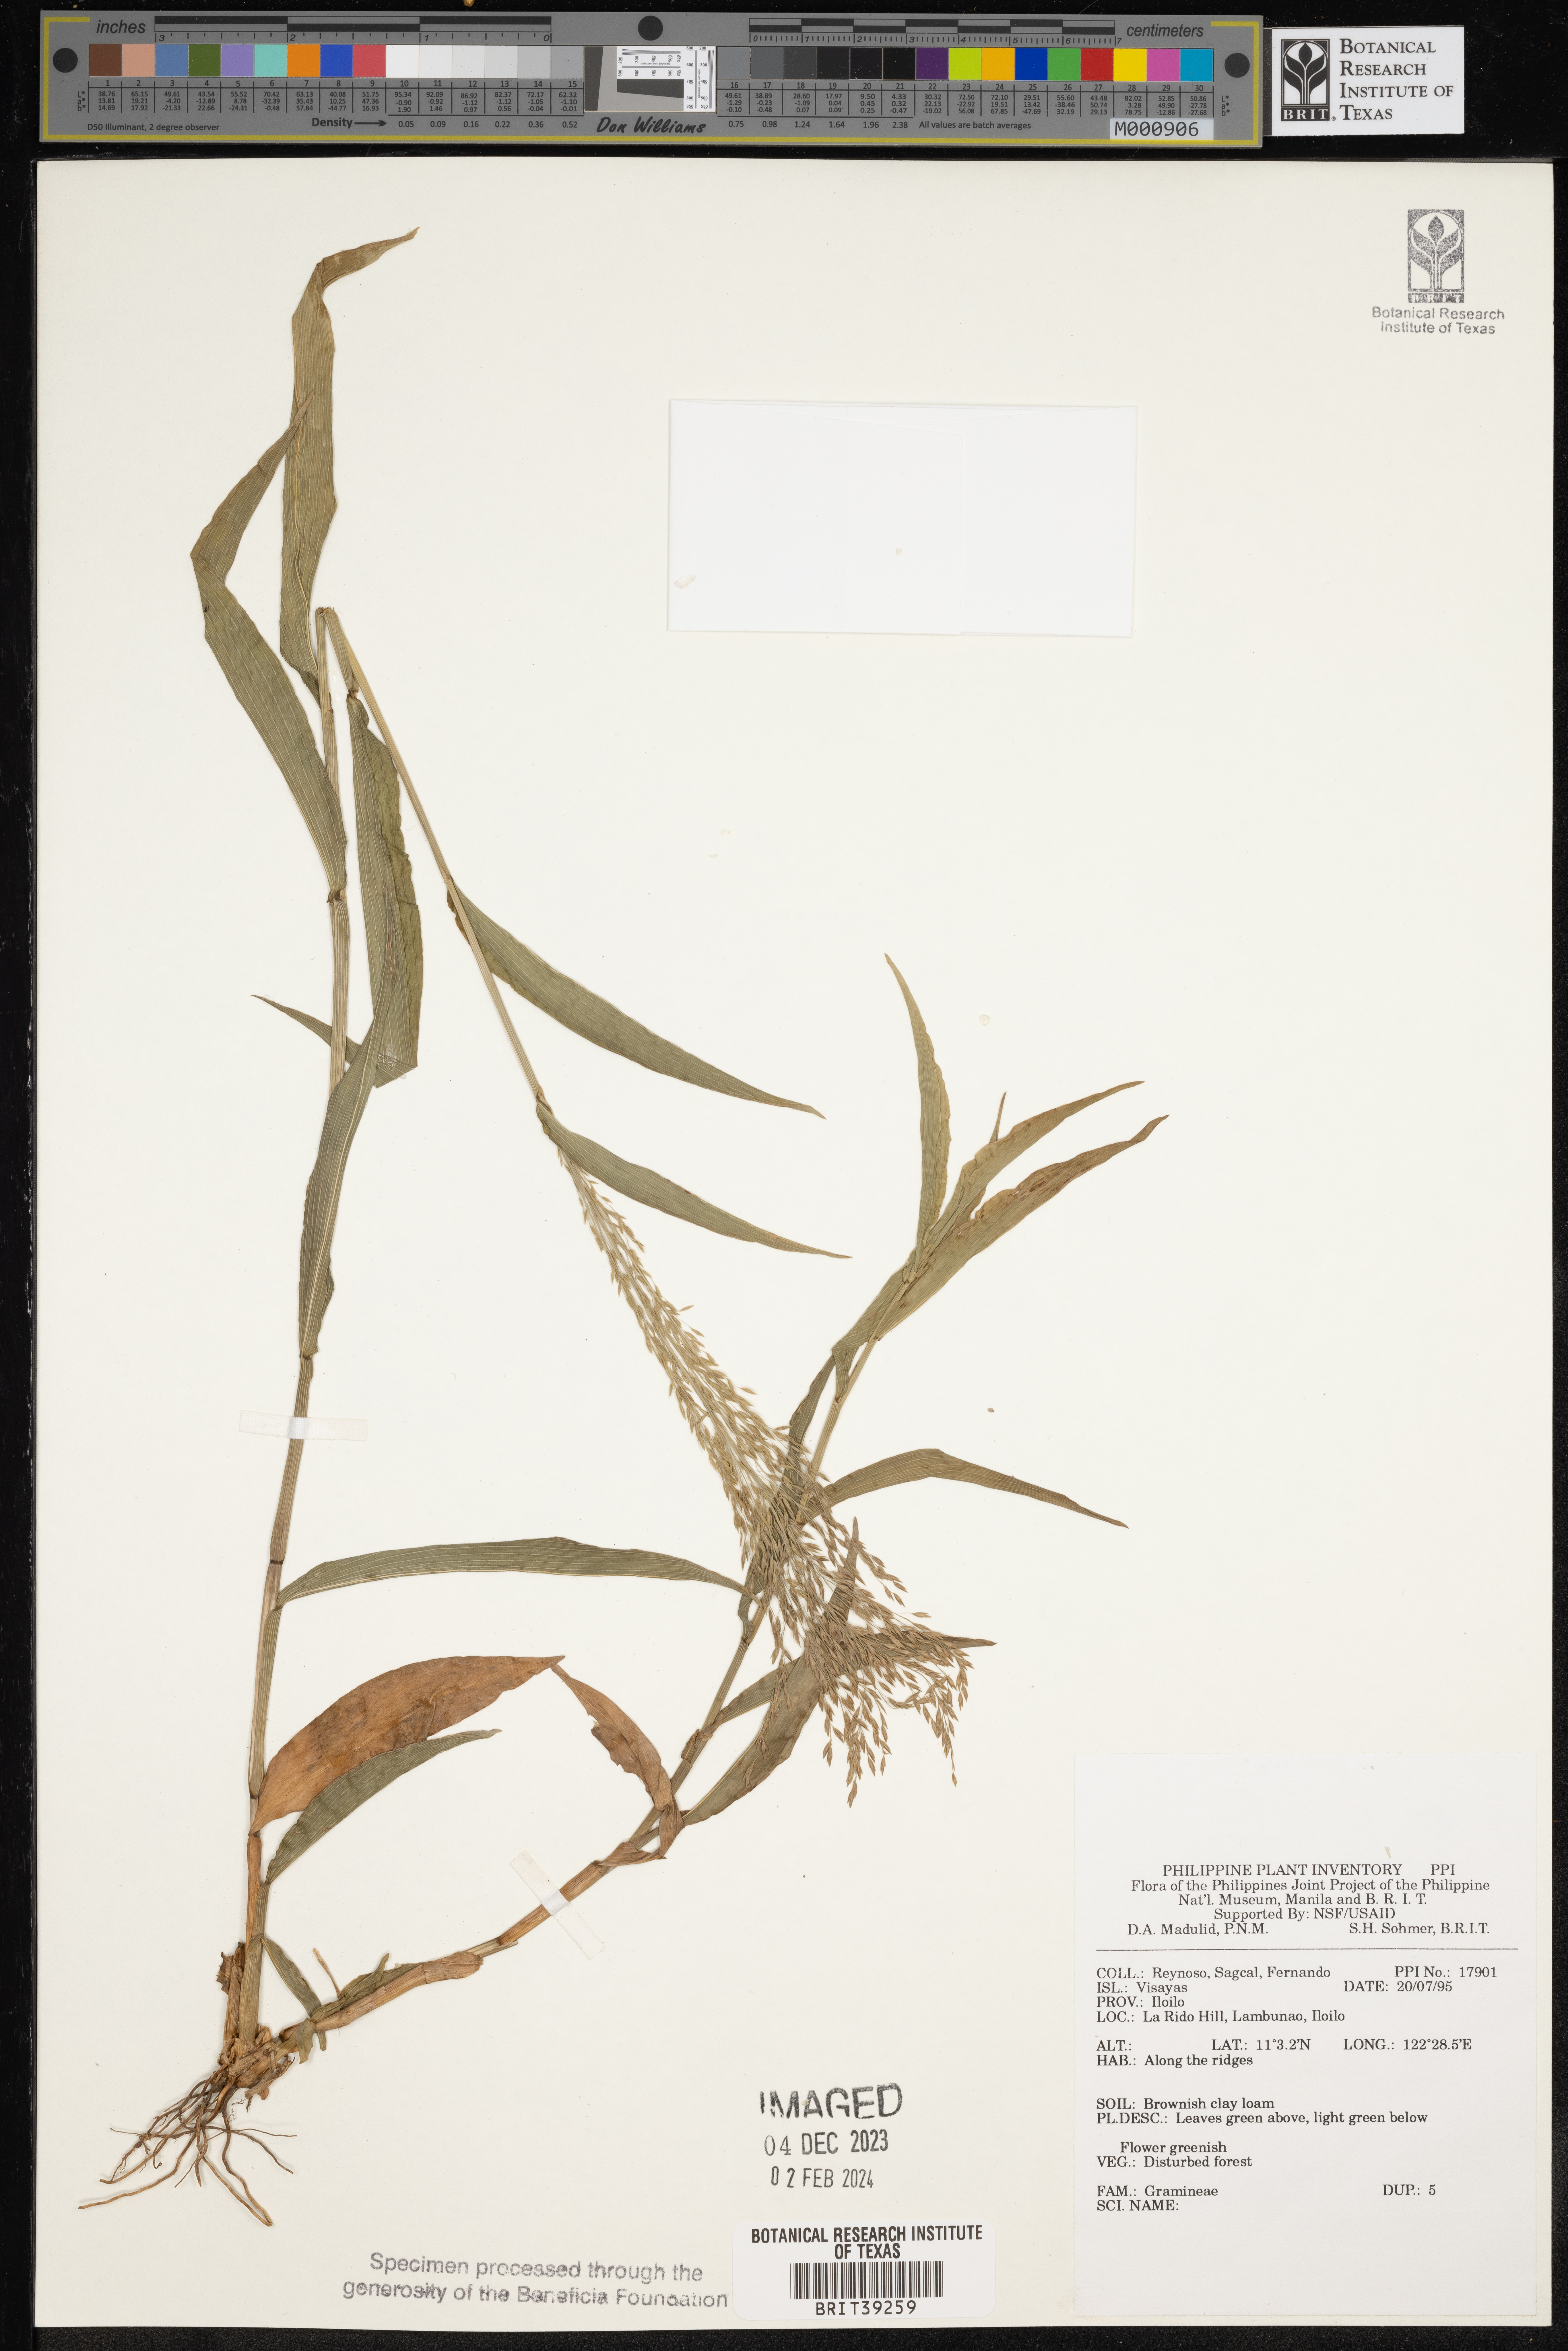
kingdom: Plantae
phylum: Tracheophyta
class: Liliopsida
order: Poales
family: Poaceae
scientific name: Poaceae
